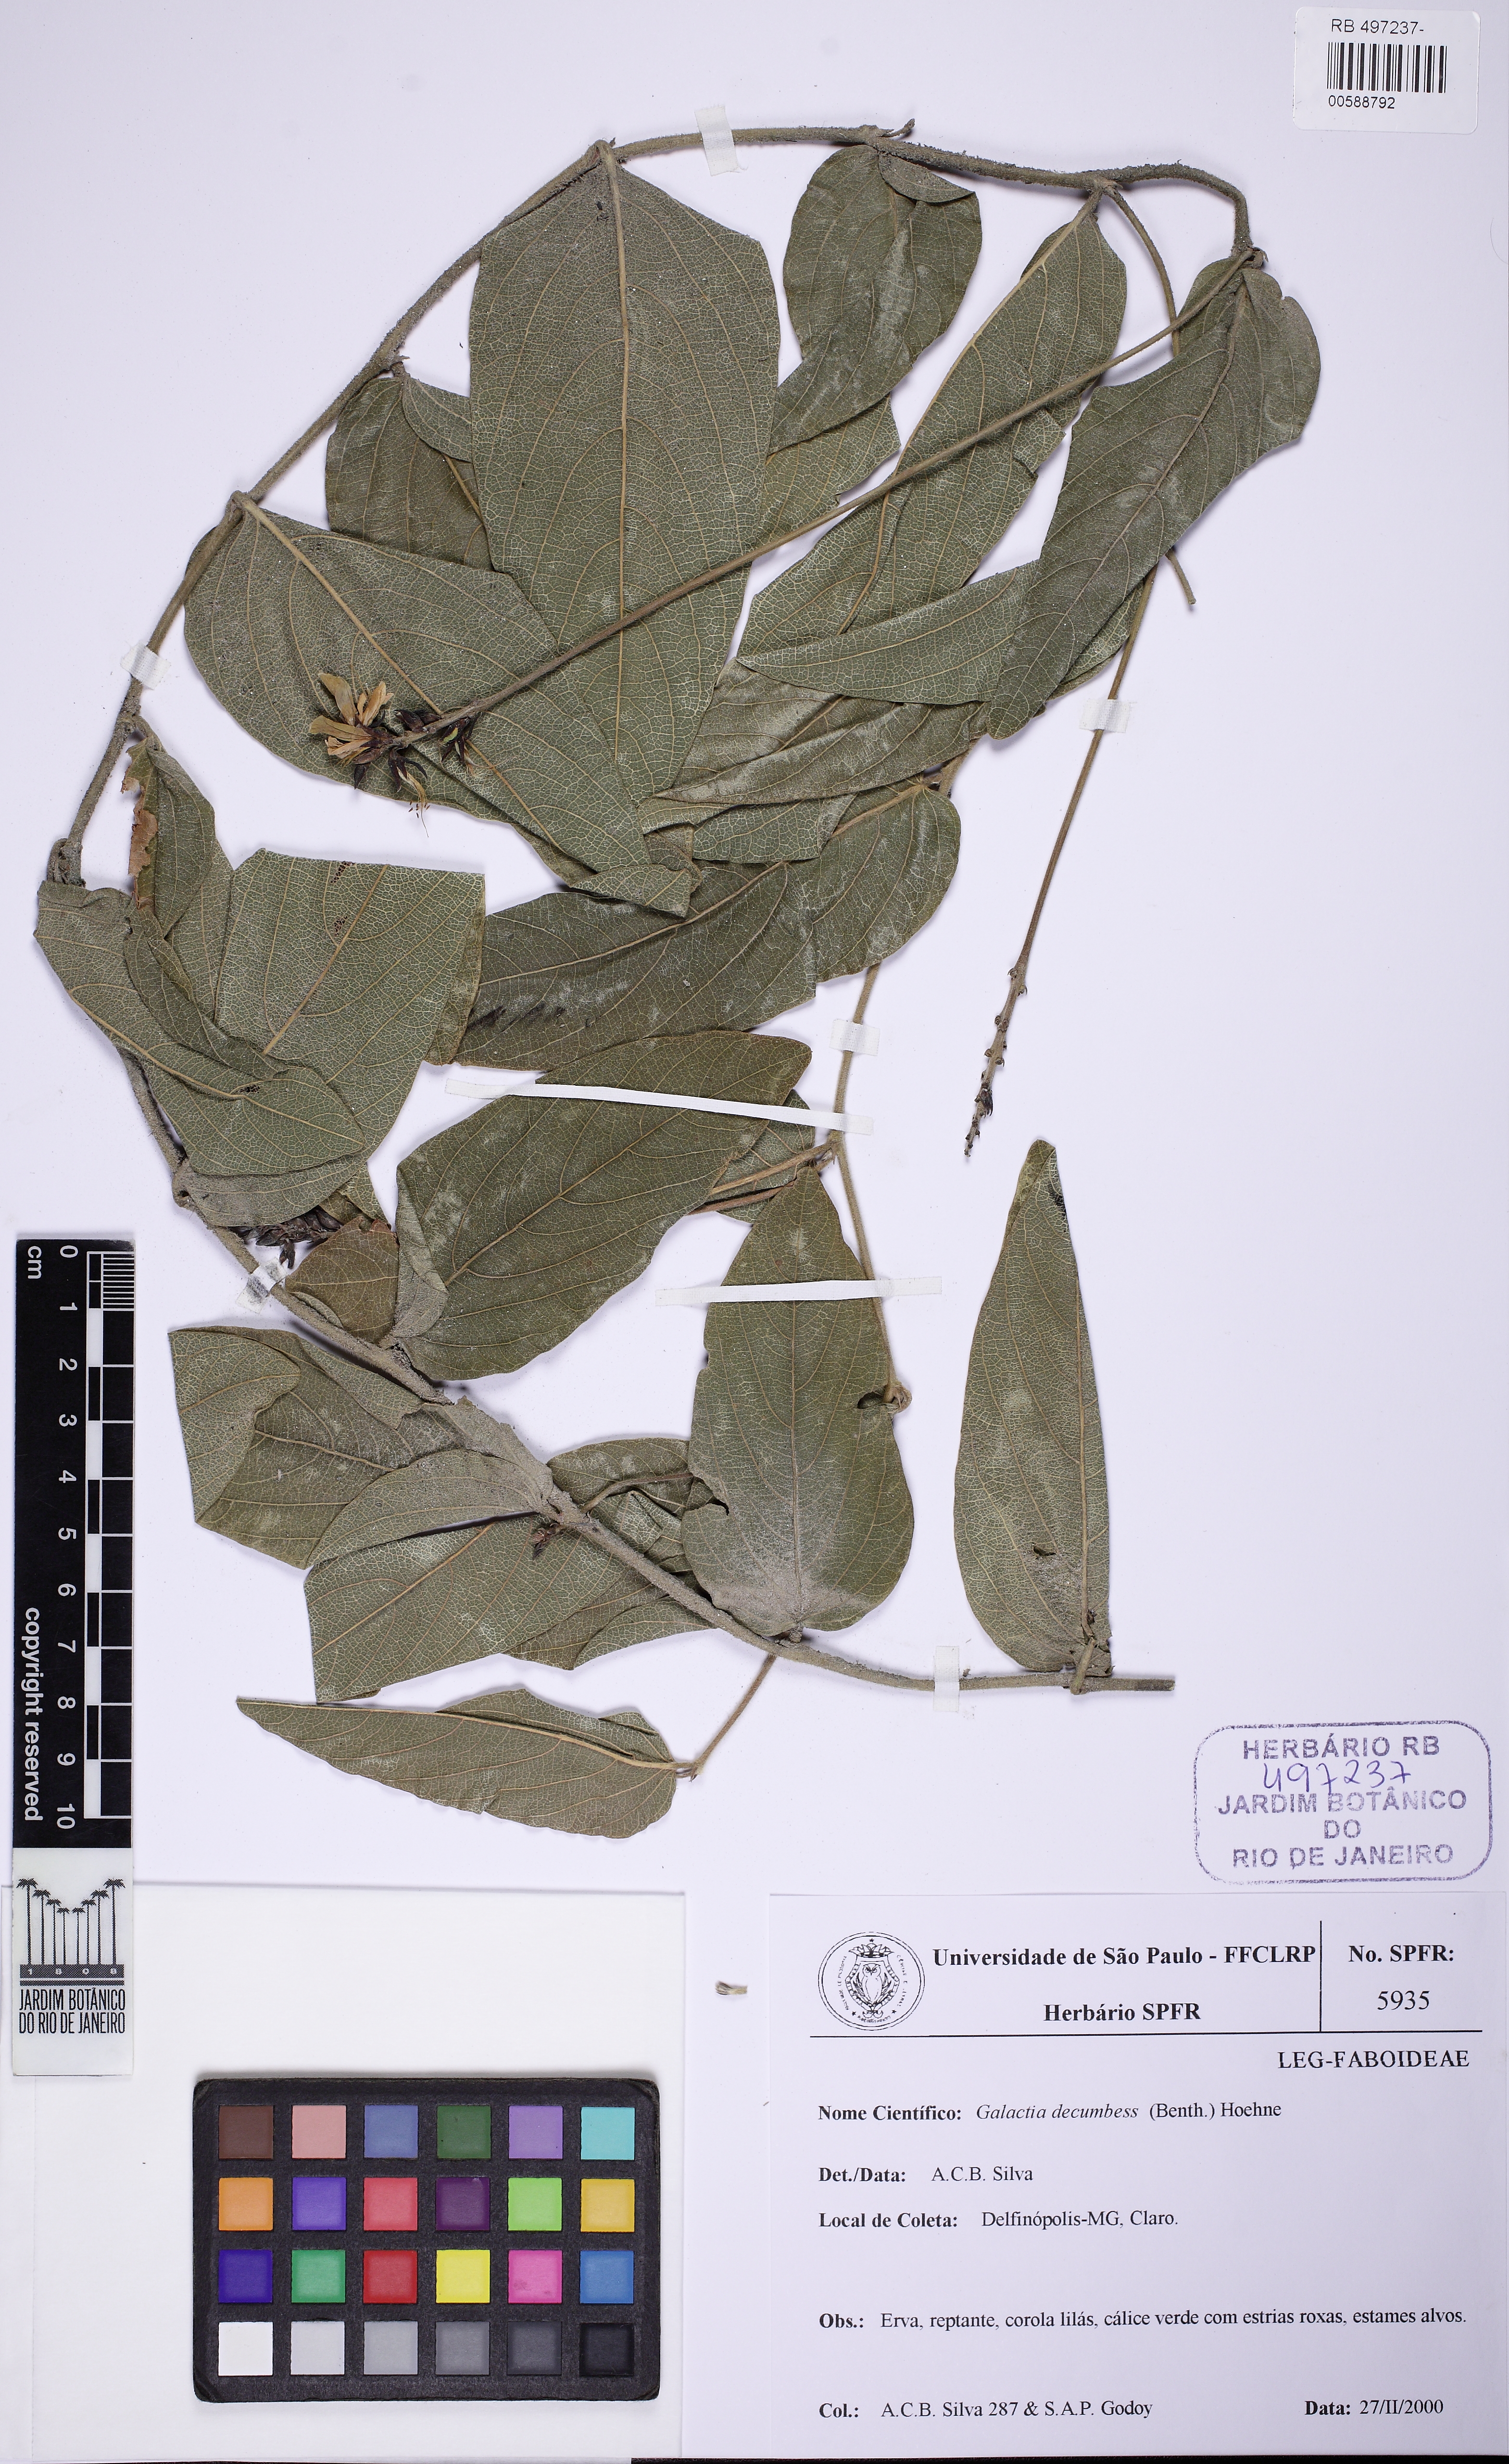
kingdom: Plantae
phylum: Tracheophyta
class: Magnoliopsida
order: Fabales
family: Fabaceae
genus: Cerradicola
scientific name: Cerradicola decumbens
